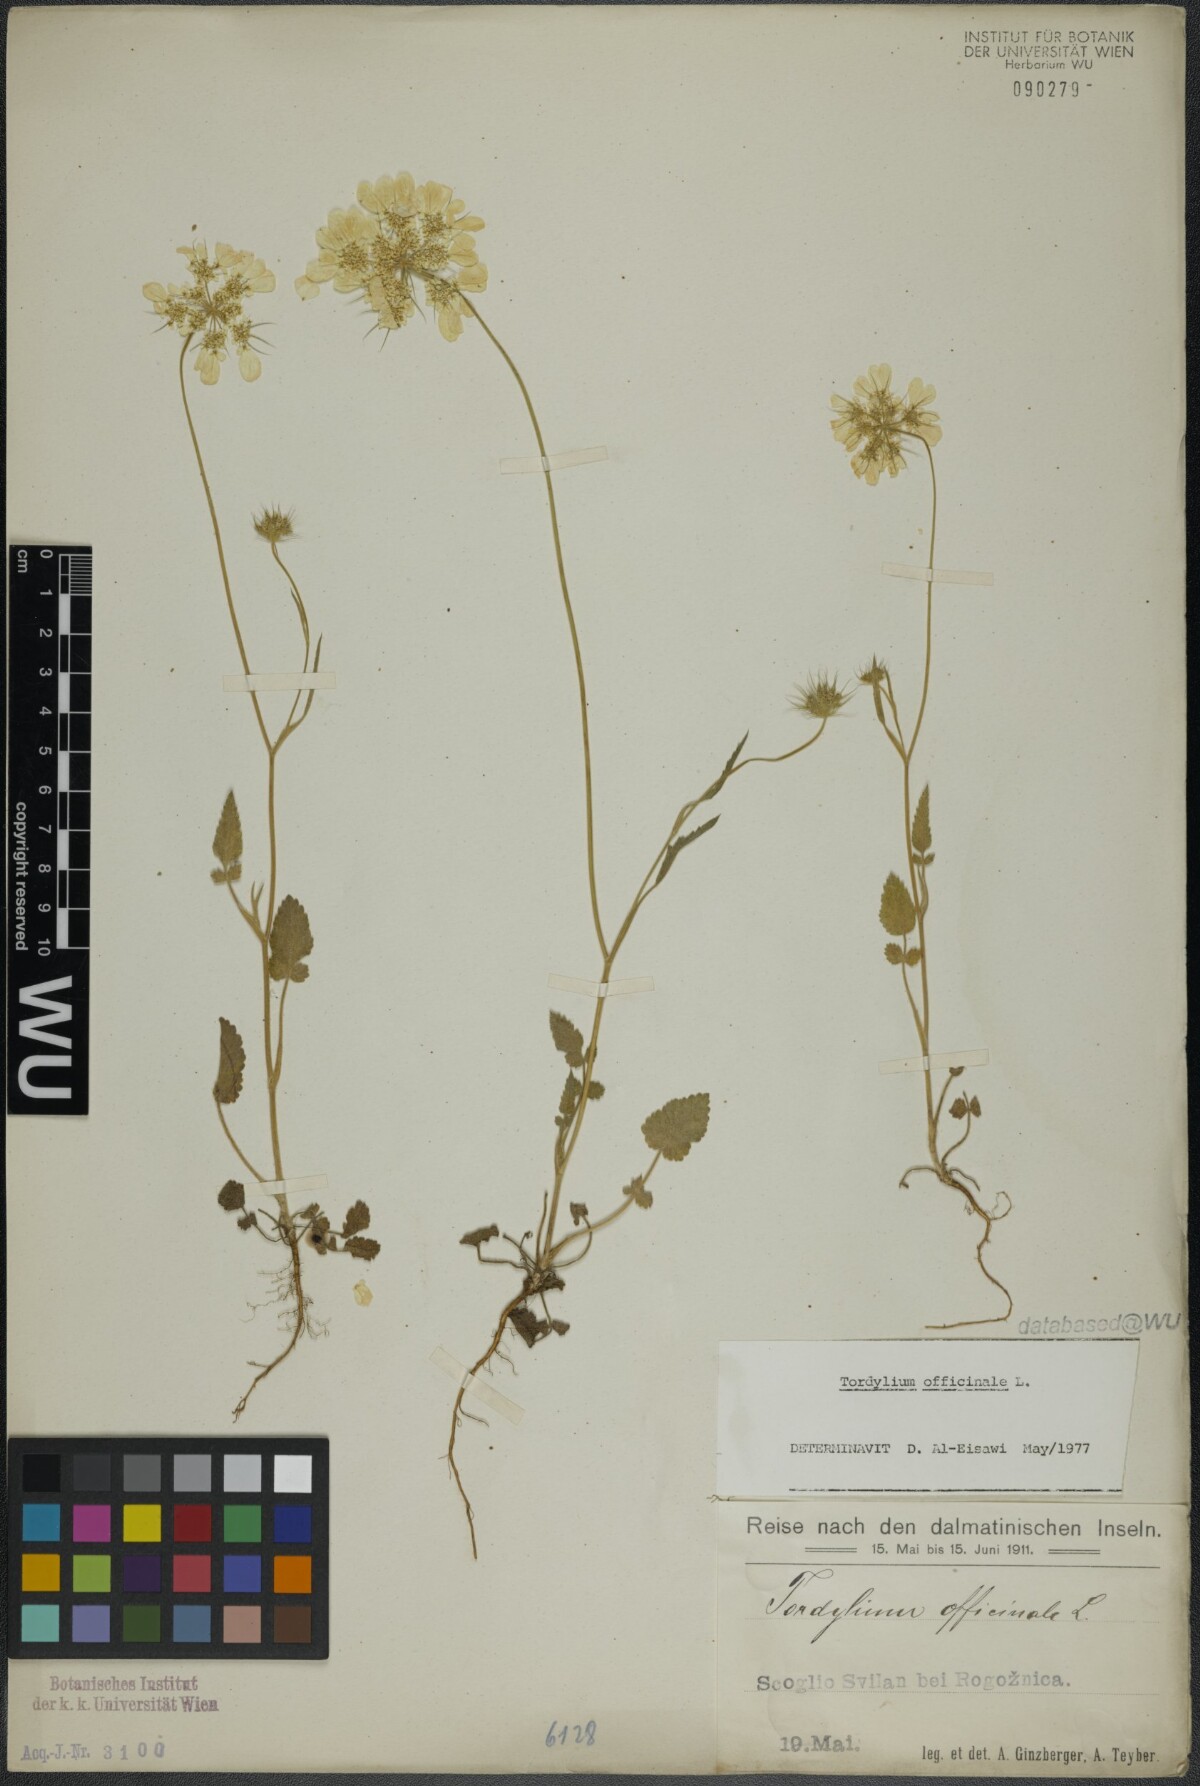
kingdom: Plantae
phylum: Tracheophyta
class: Magnoliopsida
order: Apiales
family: Apiaceae
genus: Tordylium
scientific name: Tordylium officinale
